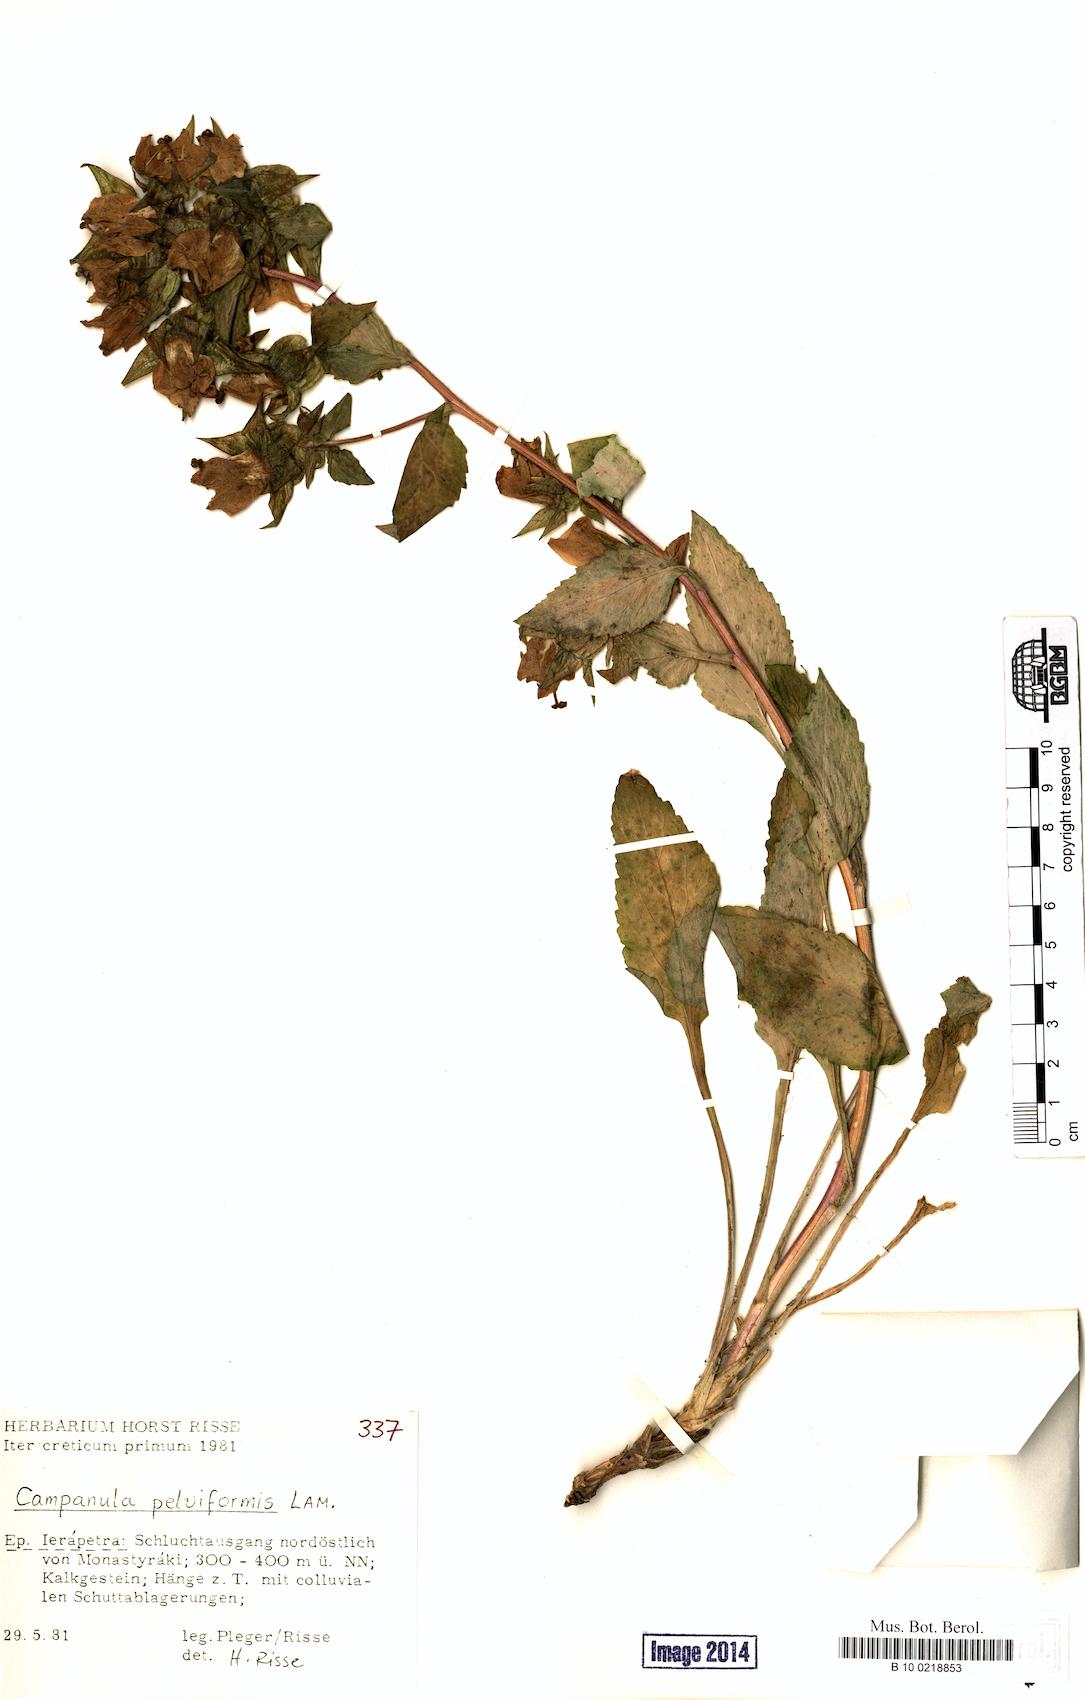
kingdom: Plantae
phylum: Tracheophyta
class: Magnoliopsida
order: Asterales
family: Campanulaceae
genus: Campanula
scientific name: Campanula pelviformis
